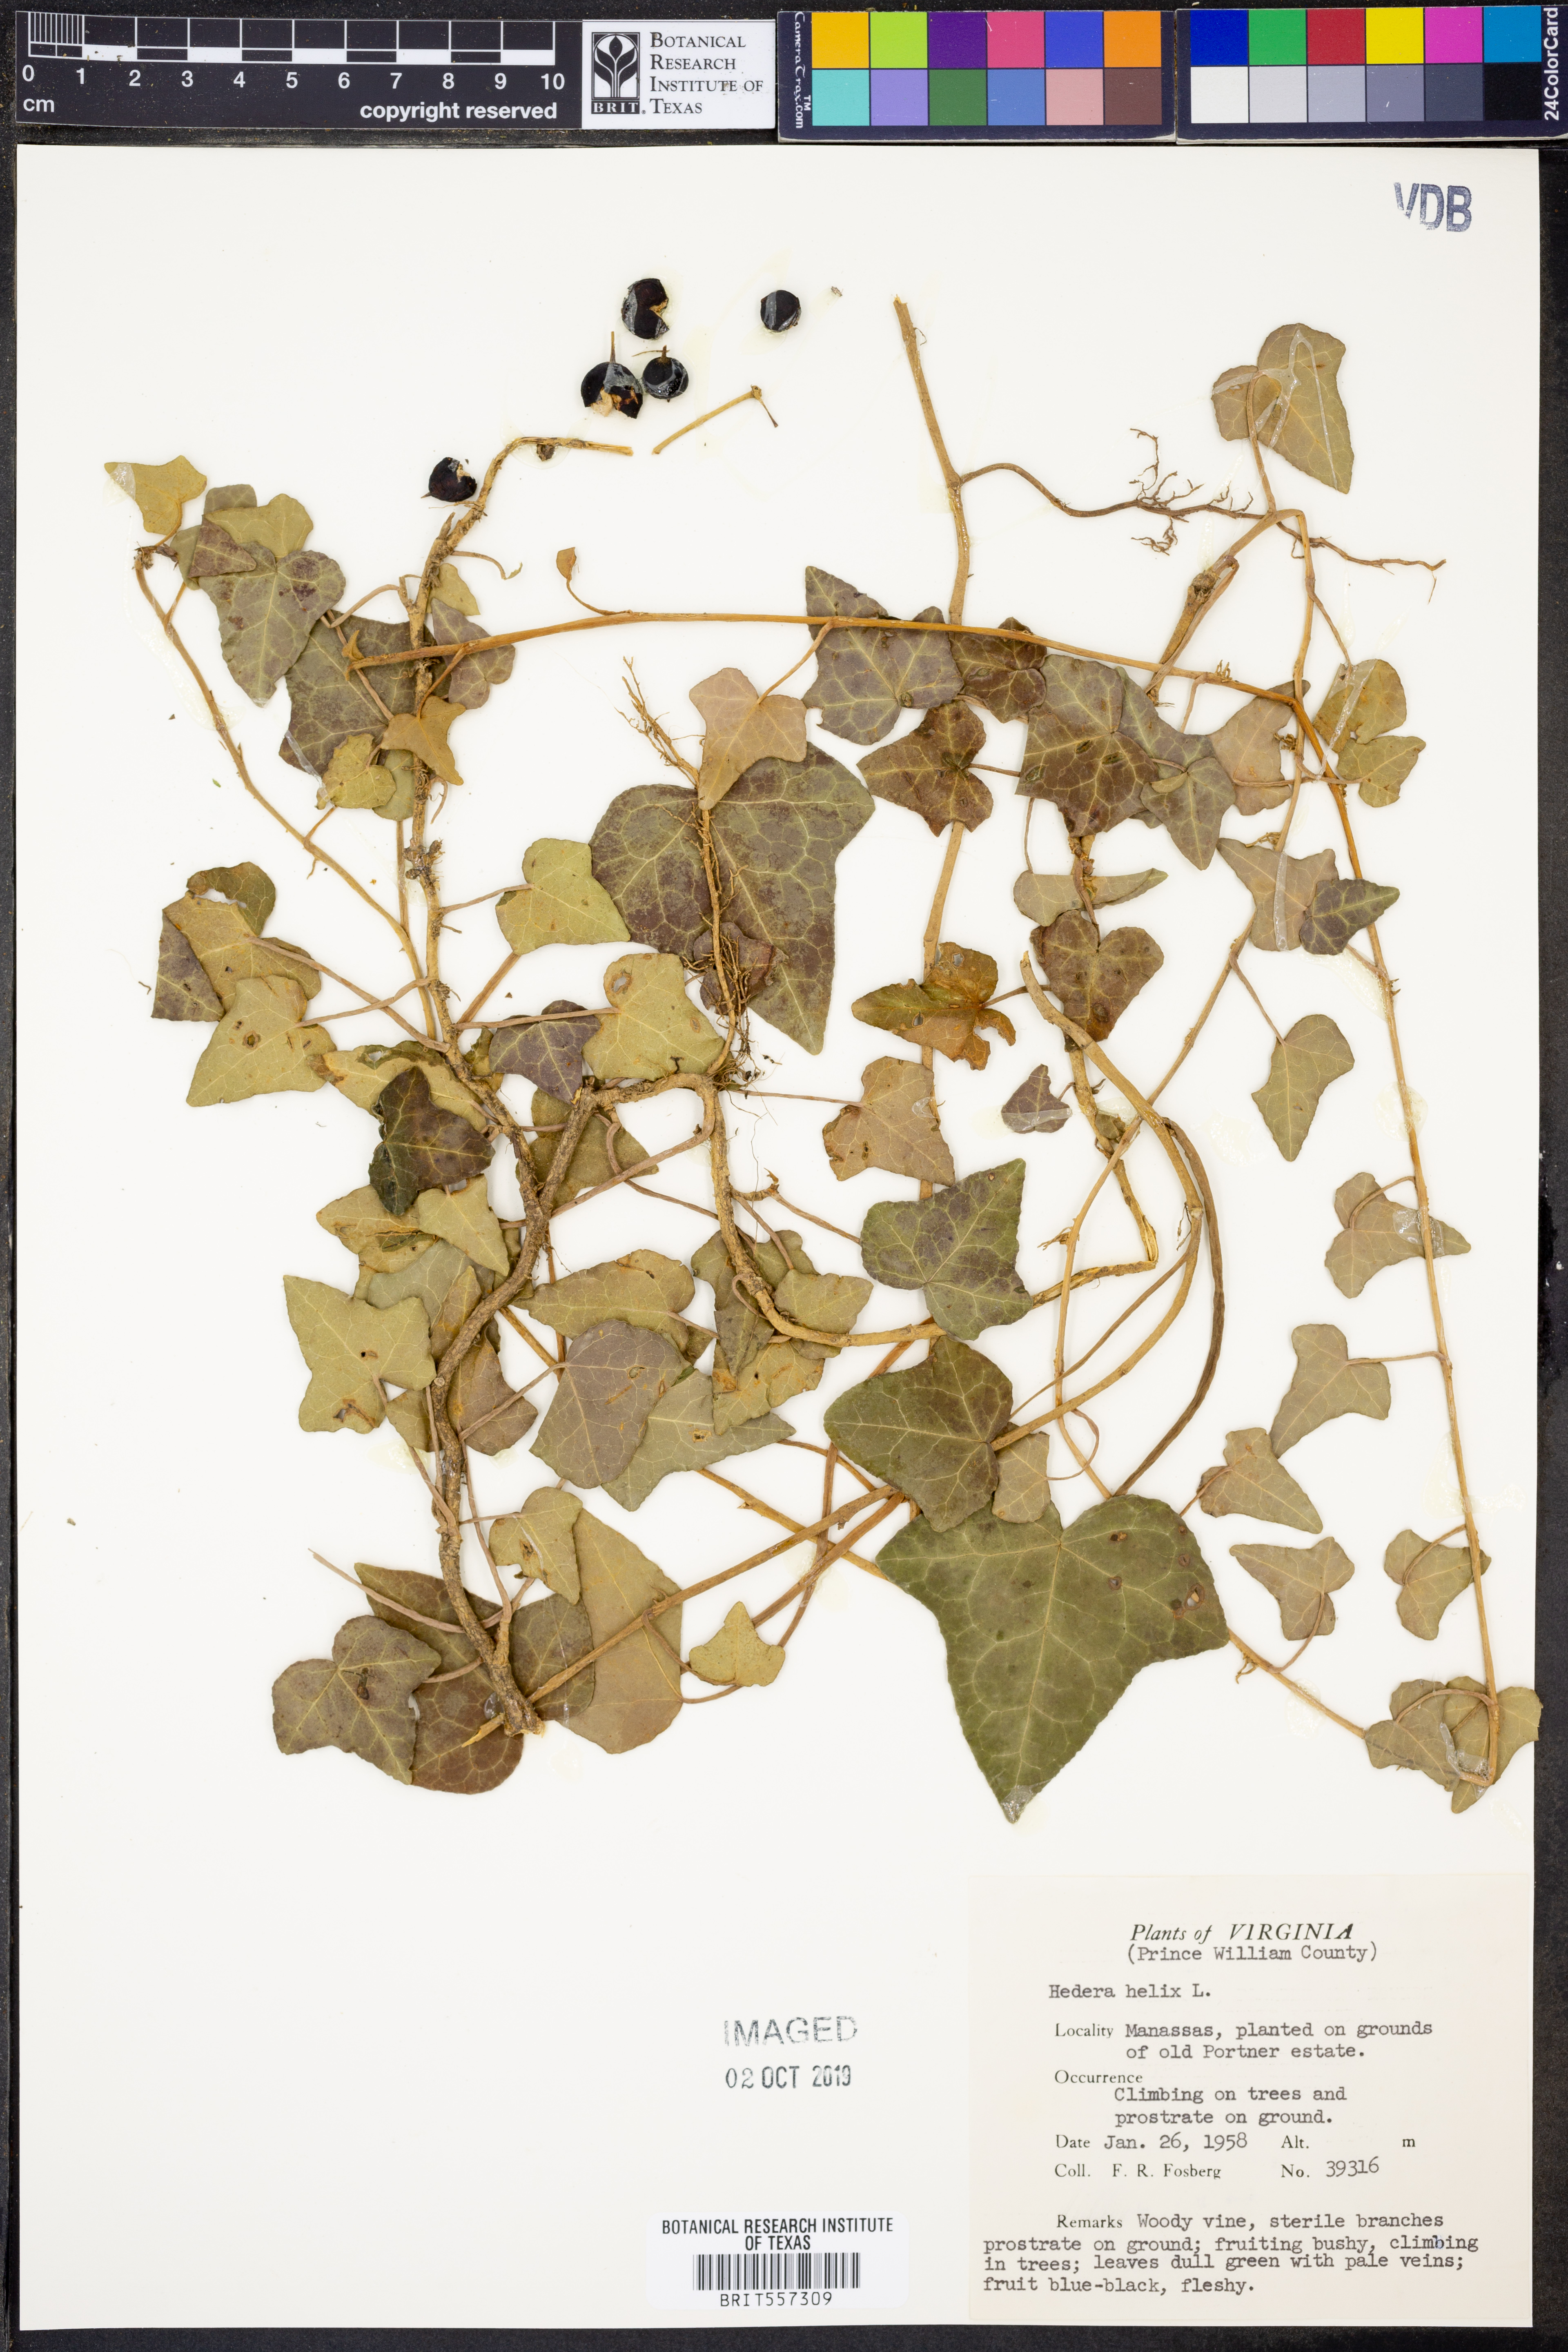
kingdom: Plantae
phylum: Tracheophyta
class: Magnoliopsida
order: Apiales
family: Araliaceae
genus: Hedera
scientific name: Hedera helix
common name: Ivy
